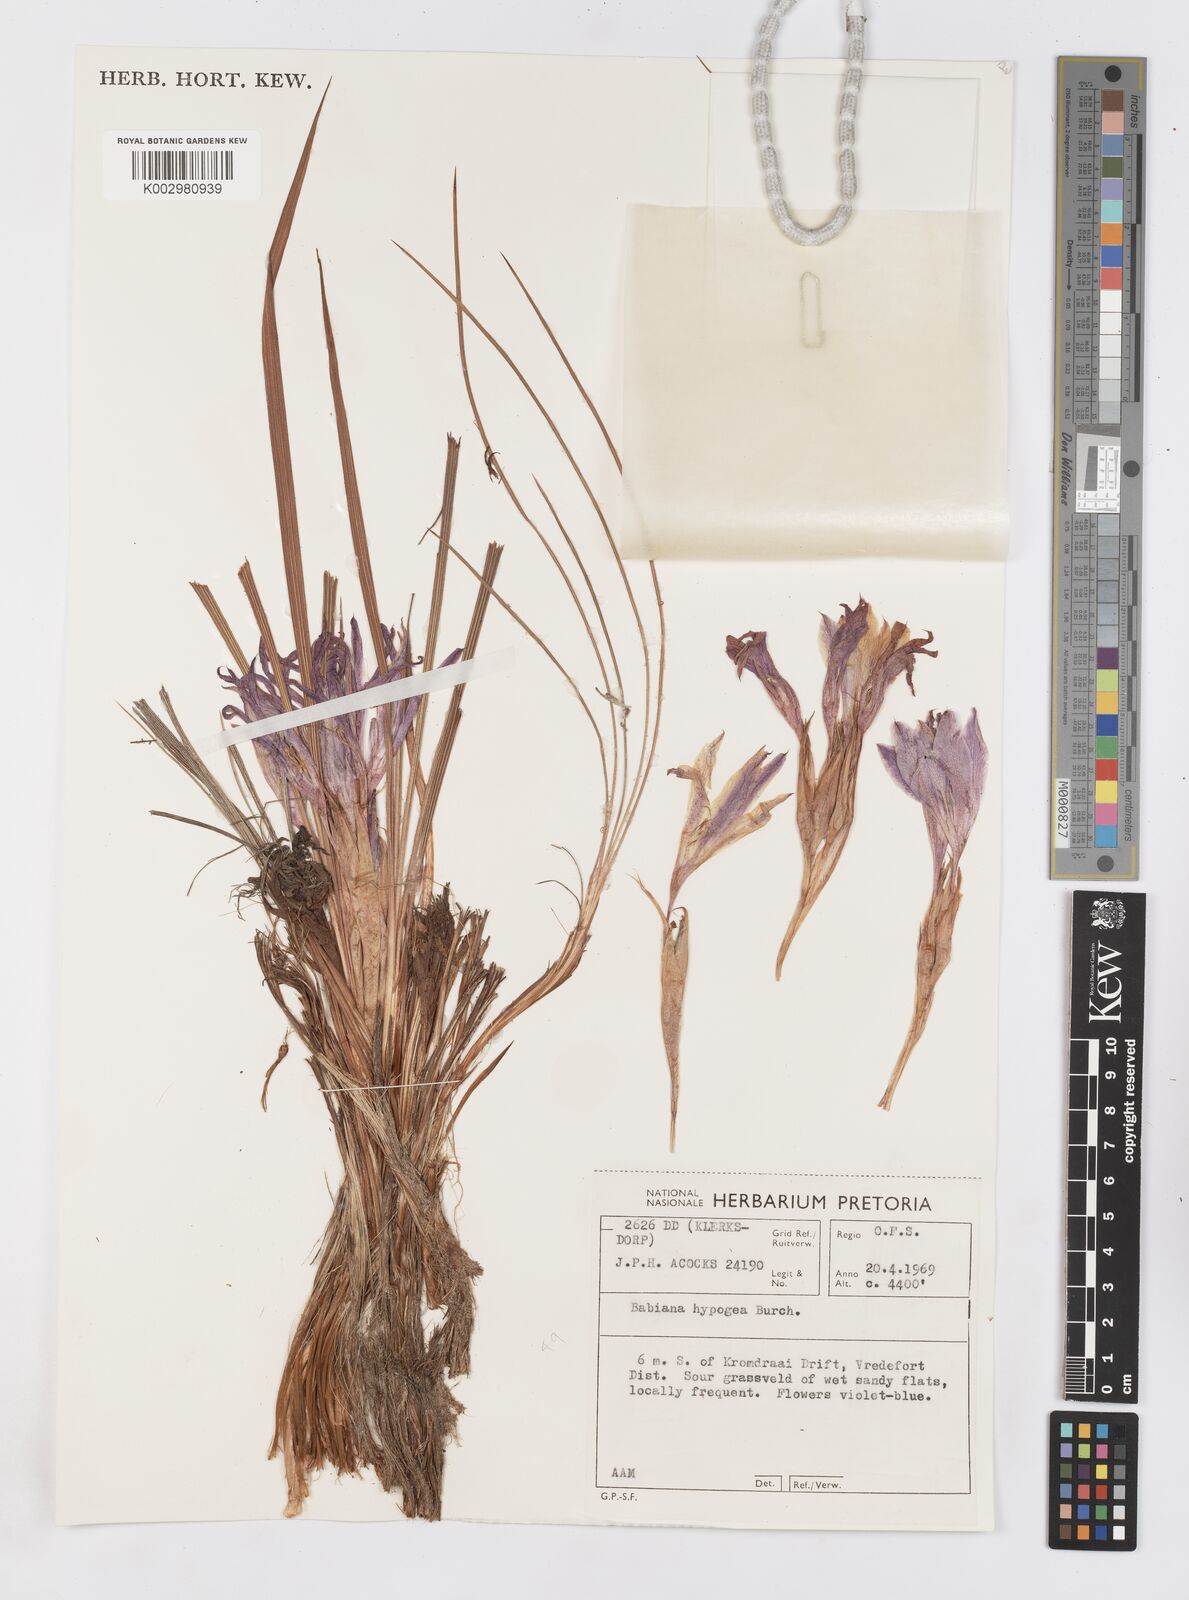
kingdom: Plantae
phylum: Tracheophyta
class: Liliopsida
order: Asparagales
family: Iridaceae
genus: Babiana
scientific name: Babiana hypogaea
